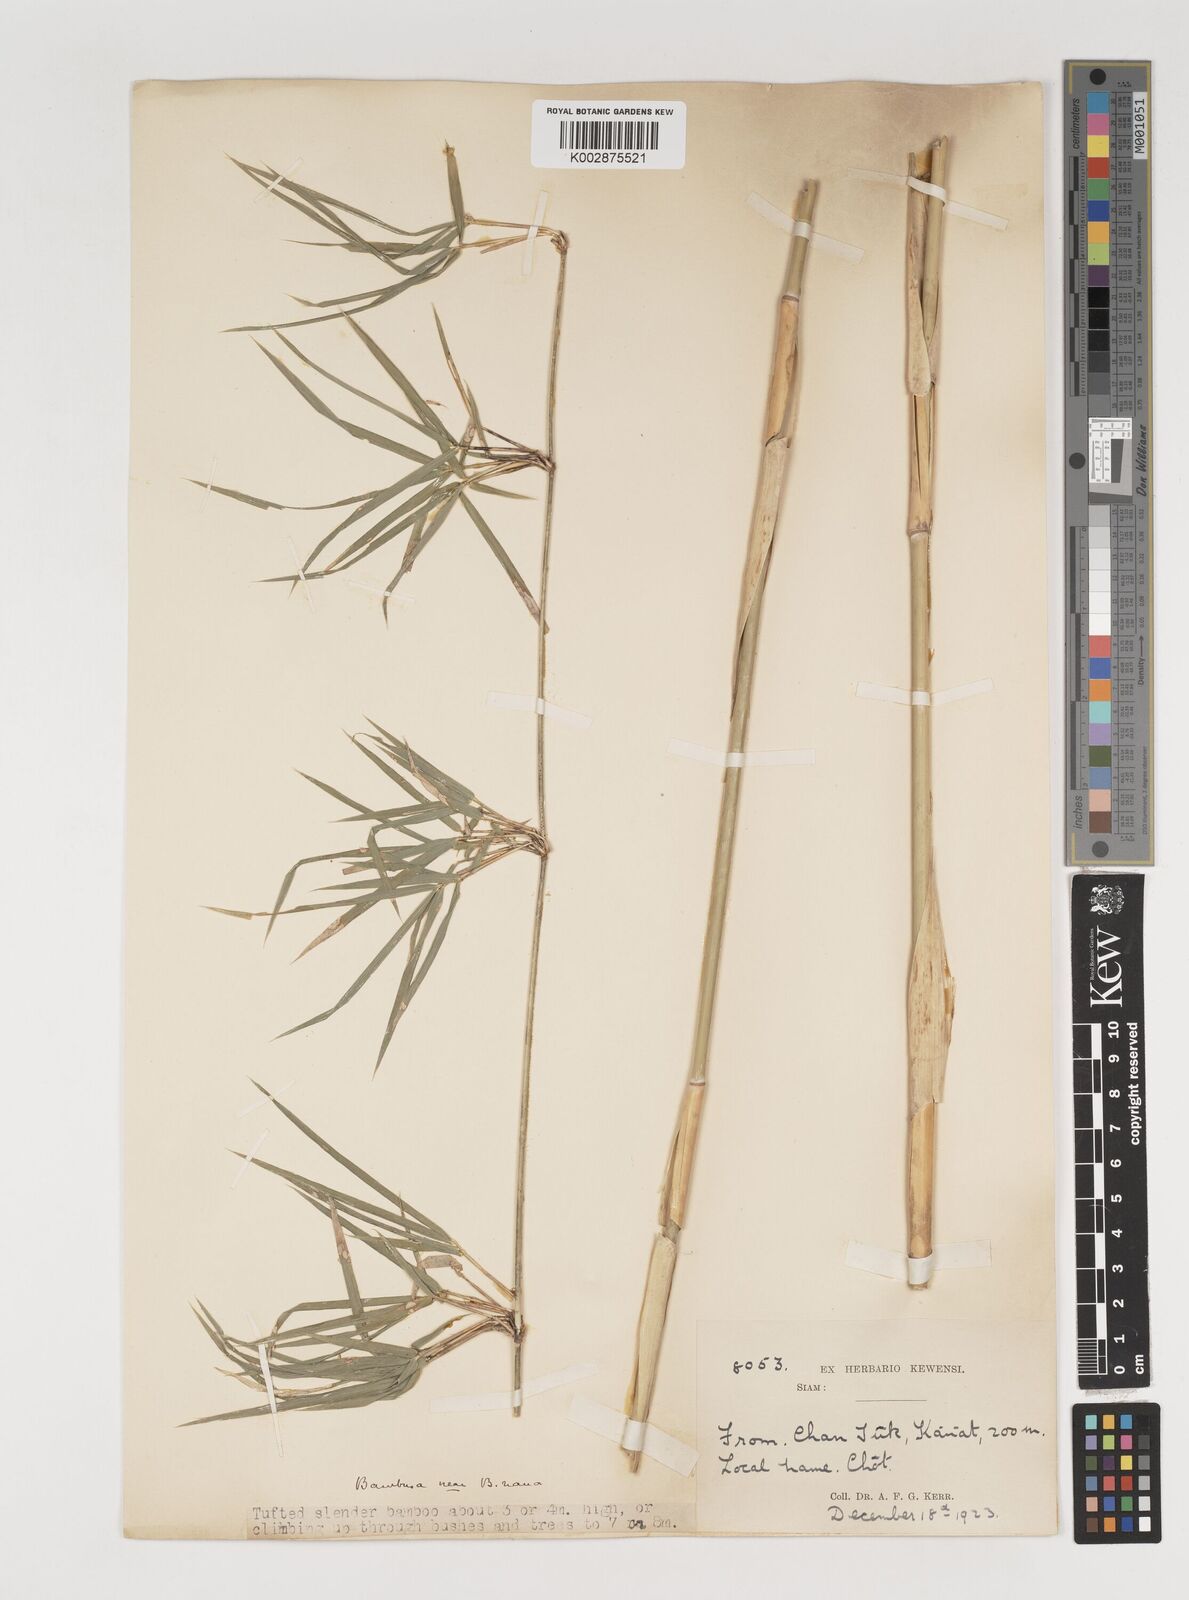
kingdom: Plantae
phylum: Tracheophyta
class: Liliopsida
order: Poales
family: Poaceae
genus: Vietnamosasa
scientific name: Vietnamosasa
